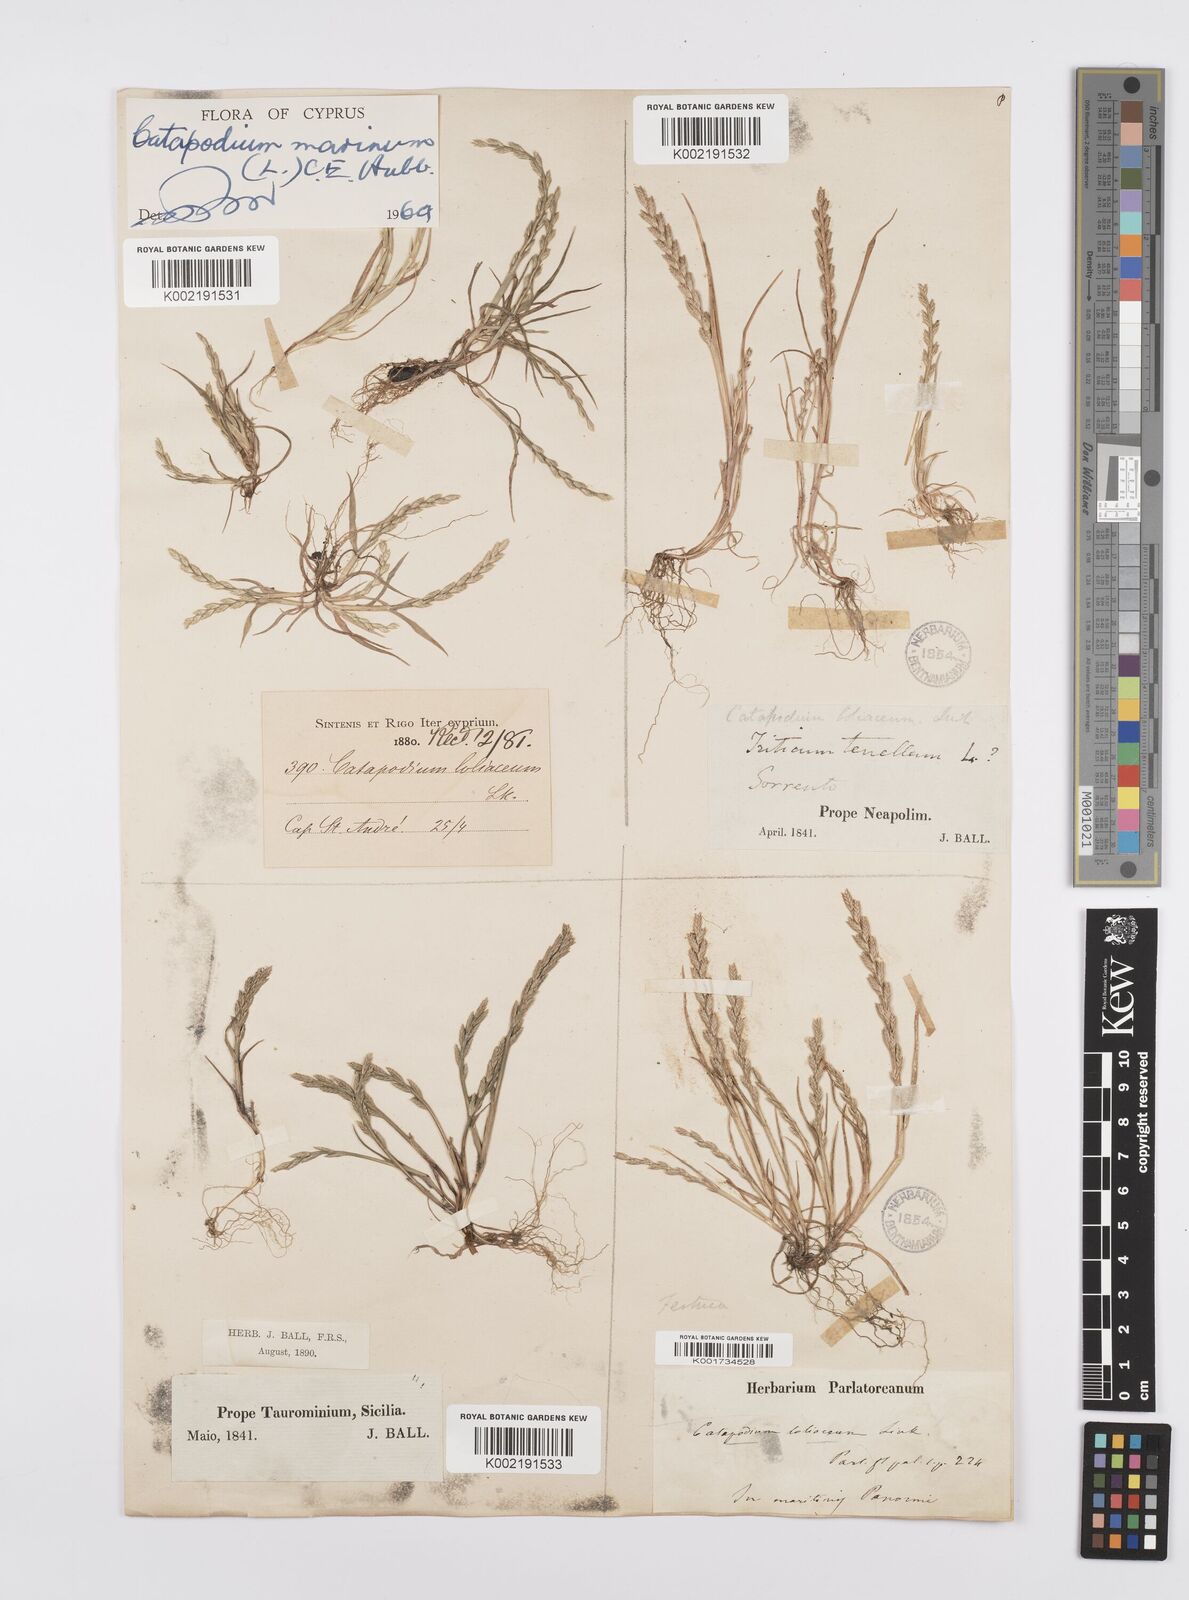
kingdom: Plantae
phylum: Tracheophyta
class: Liliopsida
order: Poales
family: Poaceae
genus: Catapodium
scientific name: Catapodium marinum
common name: Sea fern-grass
